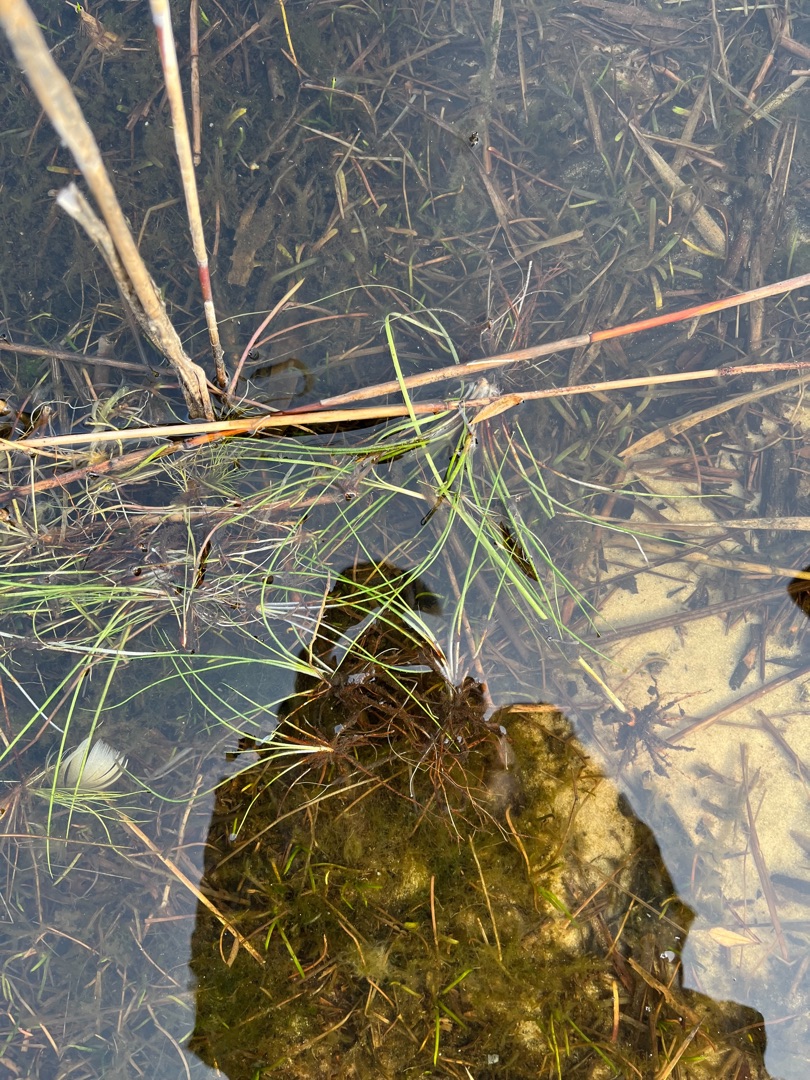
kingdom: Plantae
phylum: Tracheophyta
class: Lycopodiopsida
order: Isoetales
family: Isoetaceae
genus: Isoetes
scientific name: Isoetes echinospora
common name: Gulgrøn brasenføde
